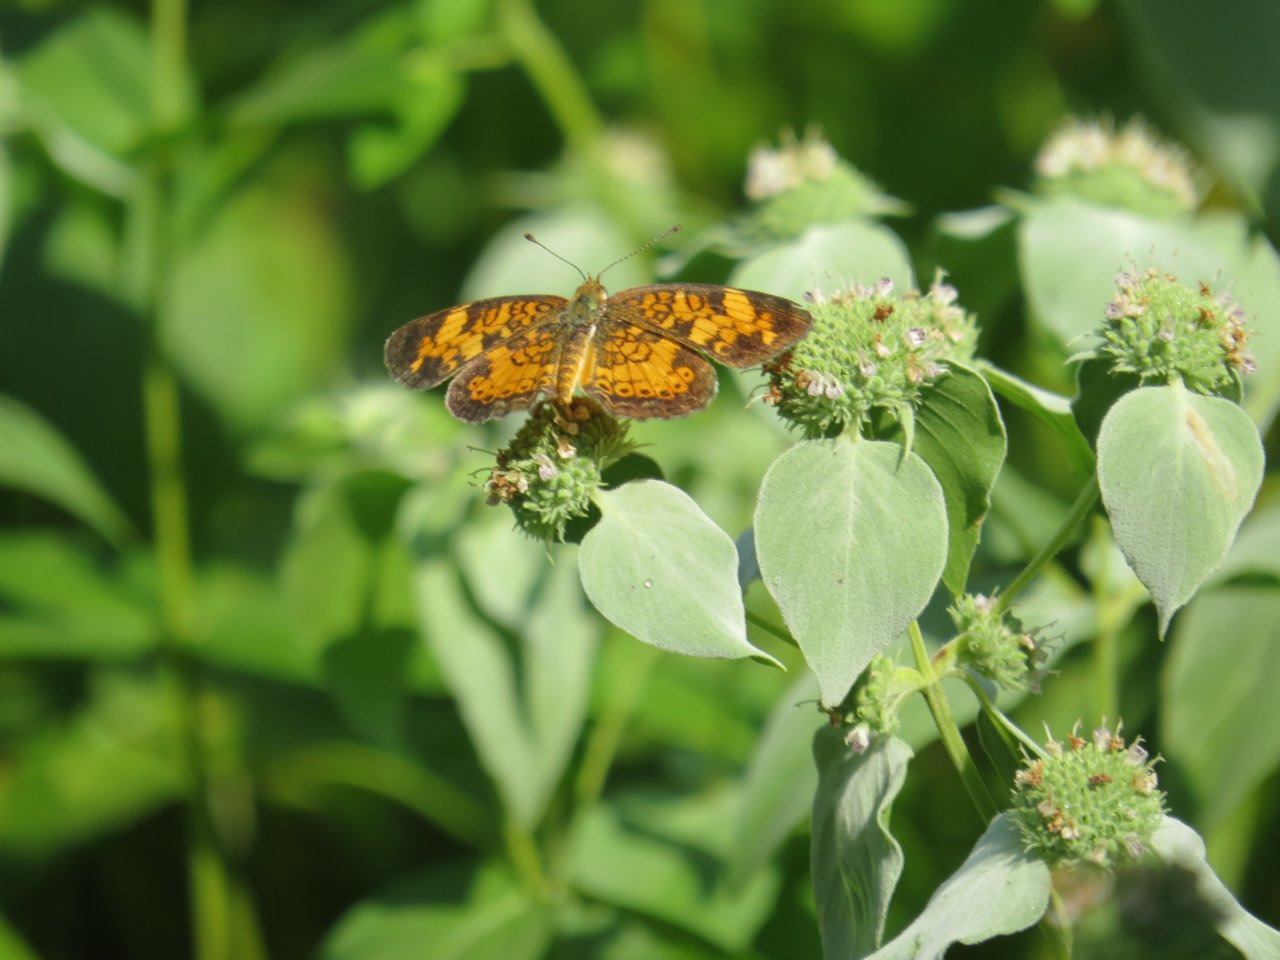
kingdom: Animalia
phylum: Arthropoda
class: Insecta
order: Lepidoptera
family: Nymphalidae
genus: Phyciodes
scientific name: Phyciodes tharos
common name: Pearl Crescent
